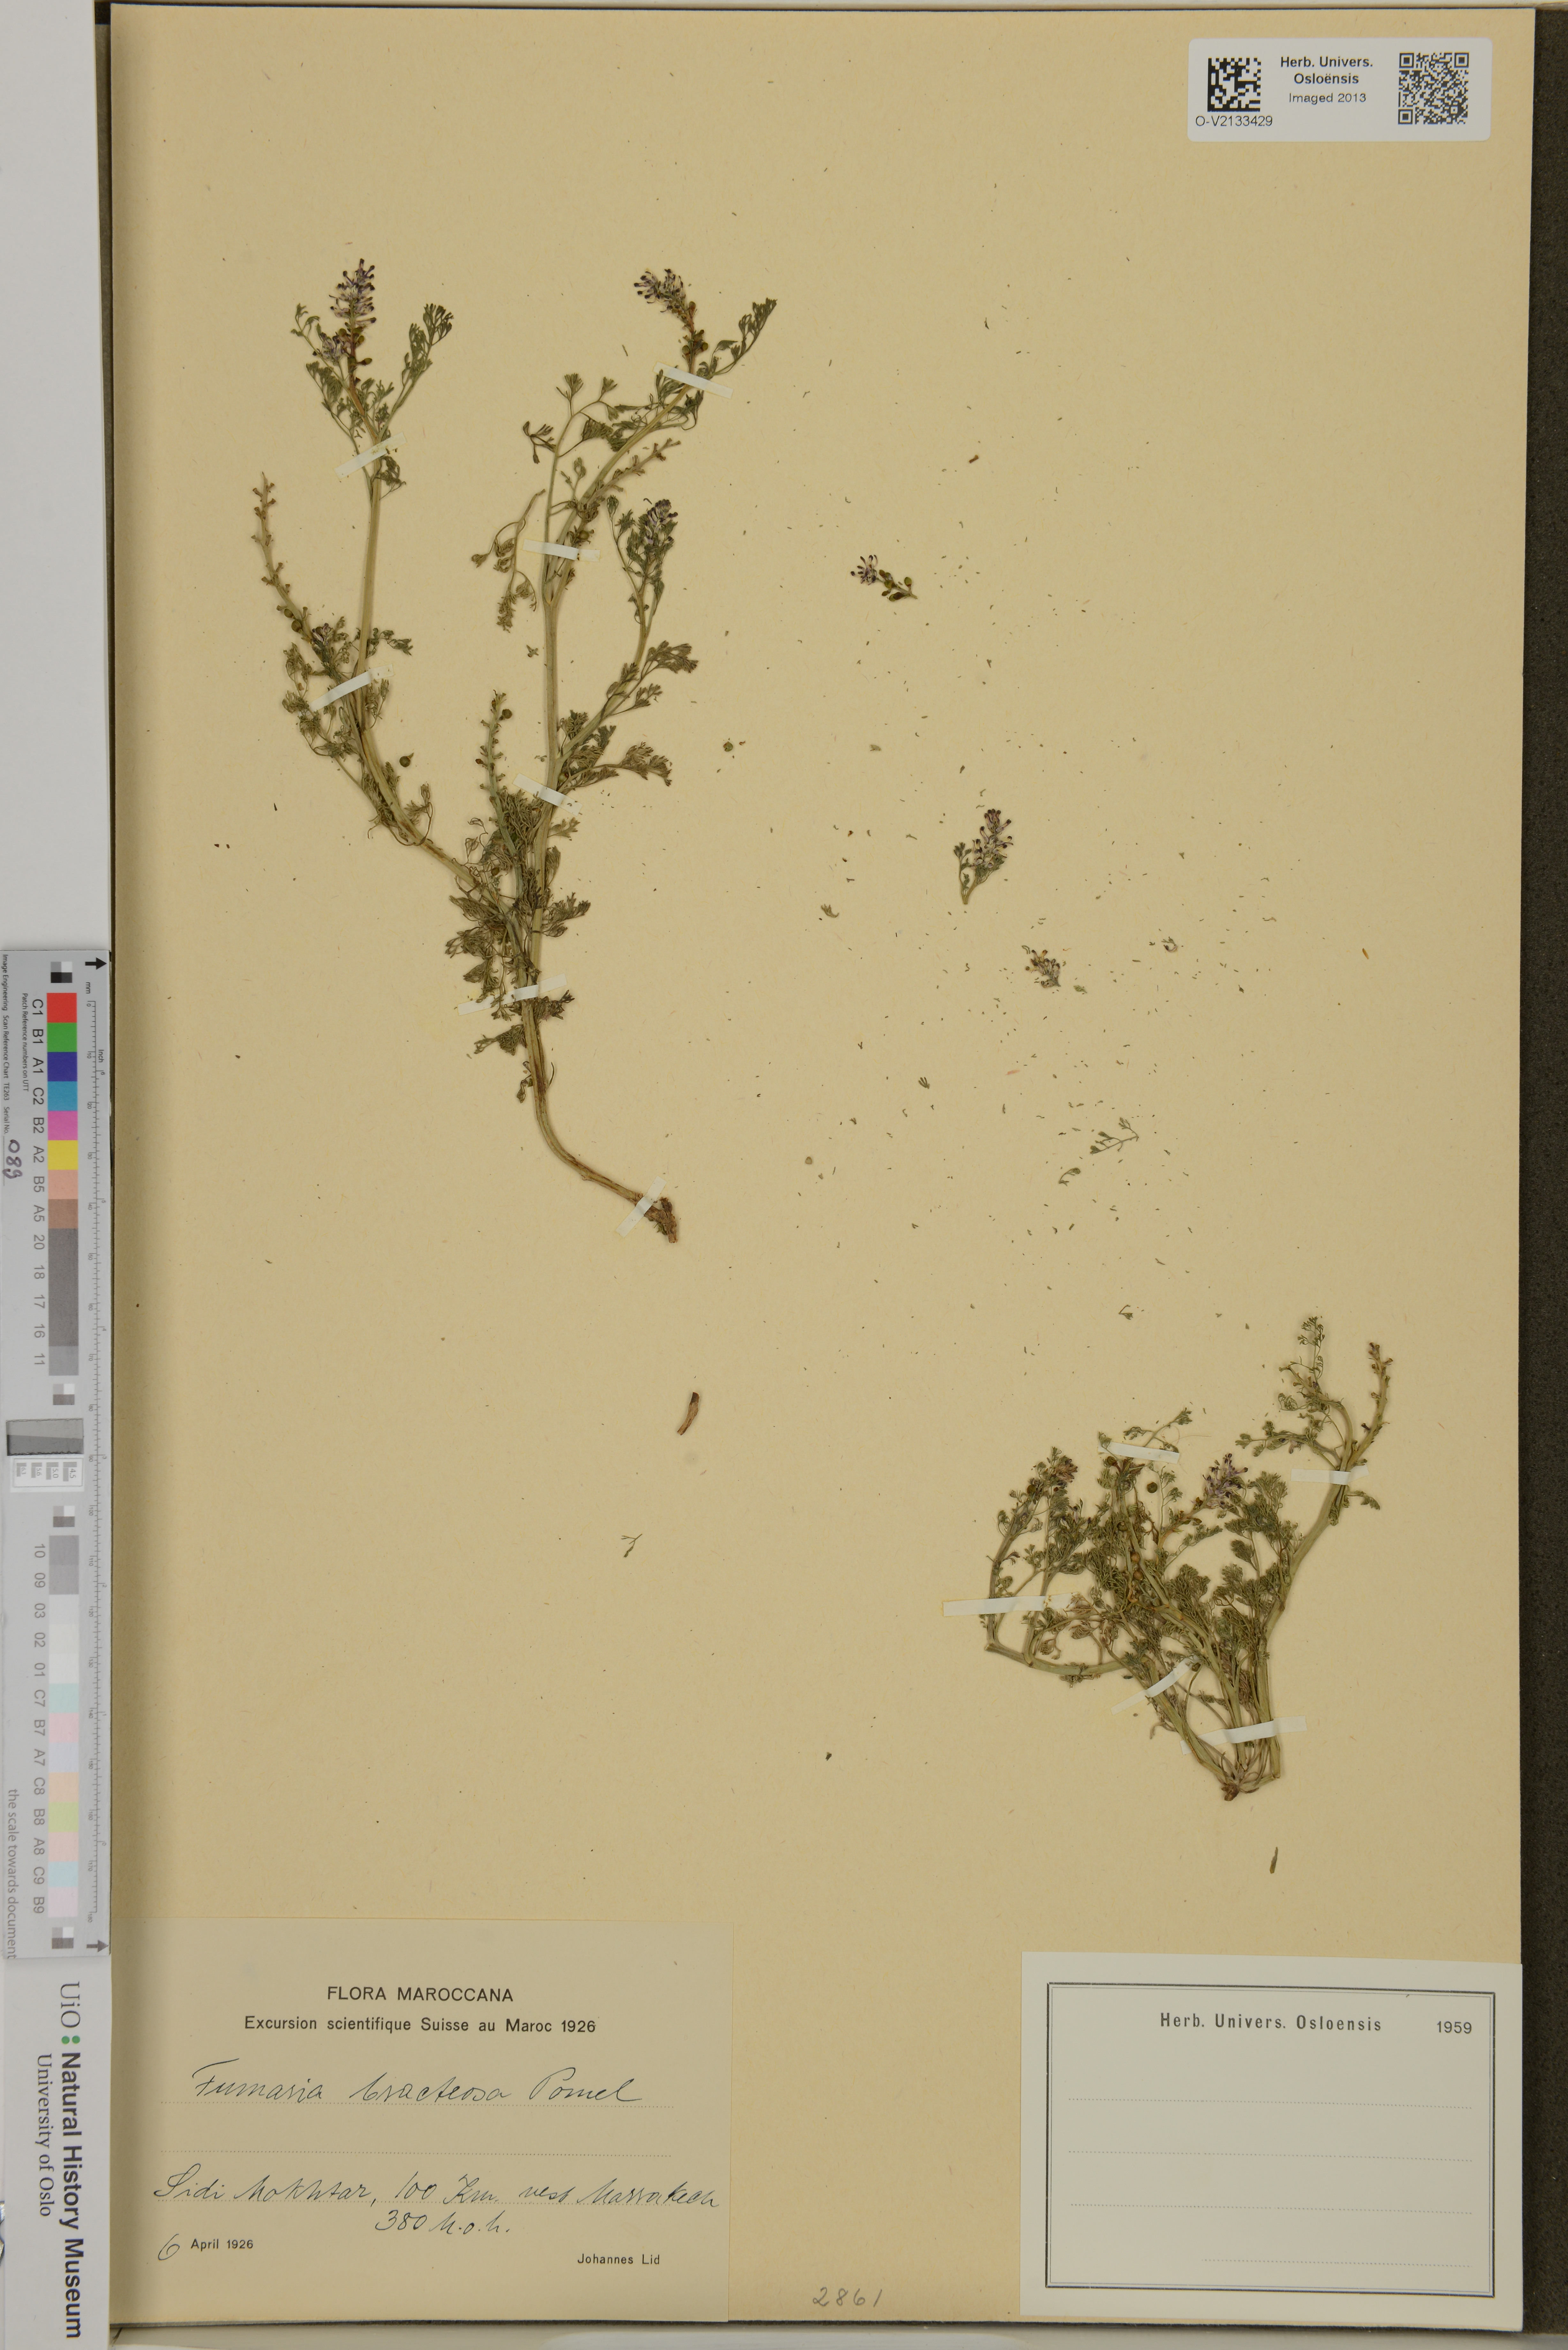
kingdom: Plantae
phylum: Tracheophyta
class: Magnoliopsida
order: Ranunculales
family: Papaveraceae
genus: Fumaria
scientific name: Fumaria bracteosa
